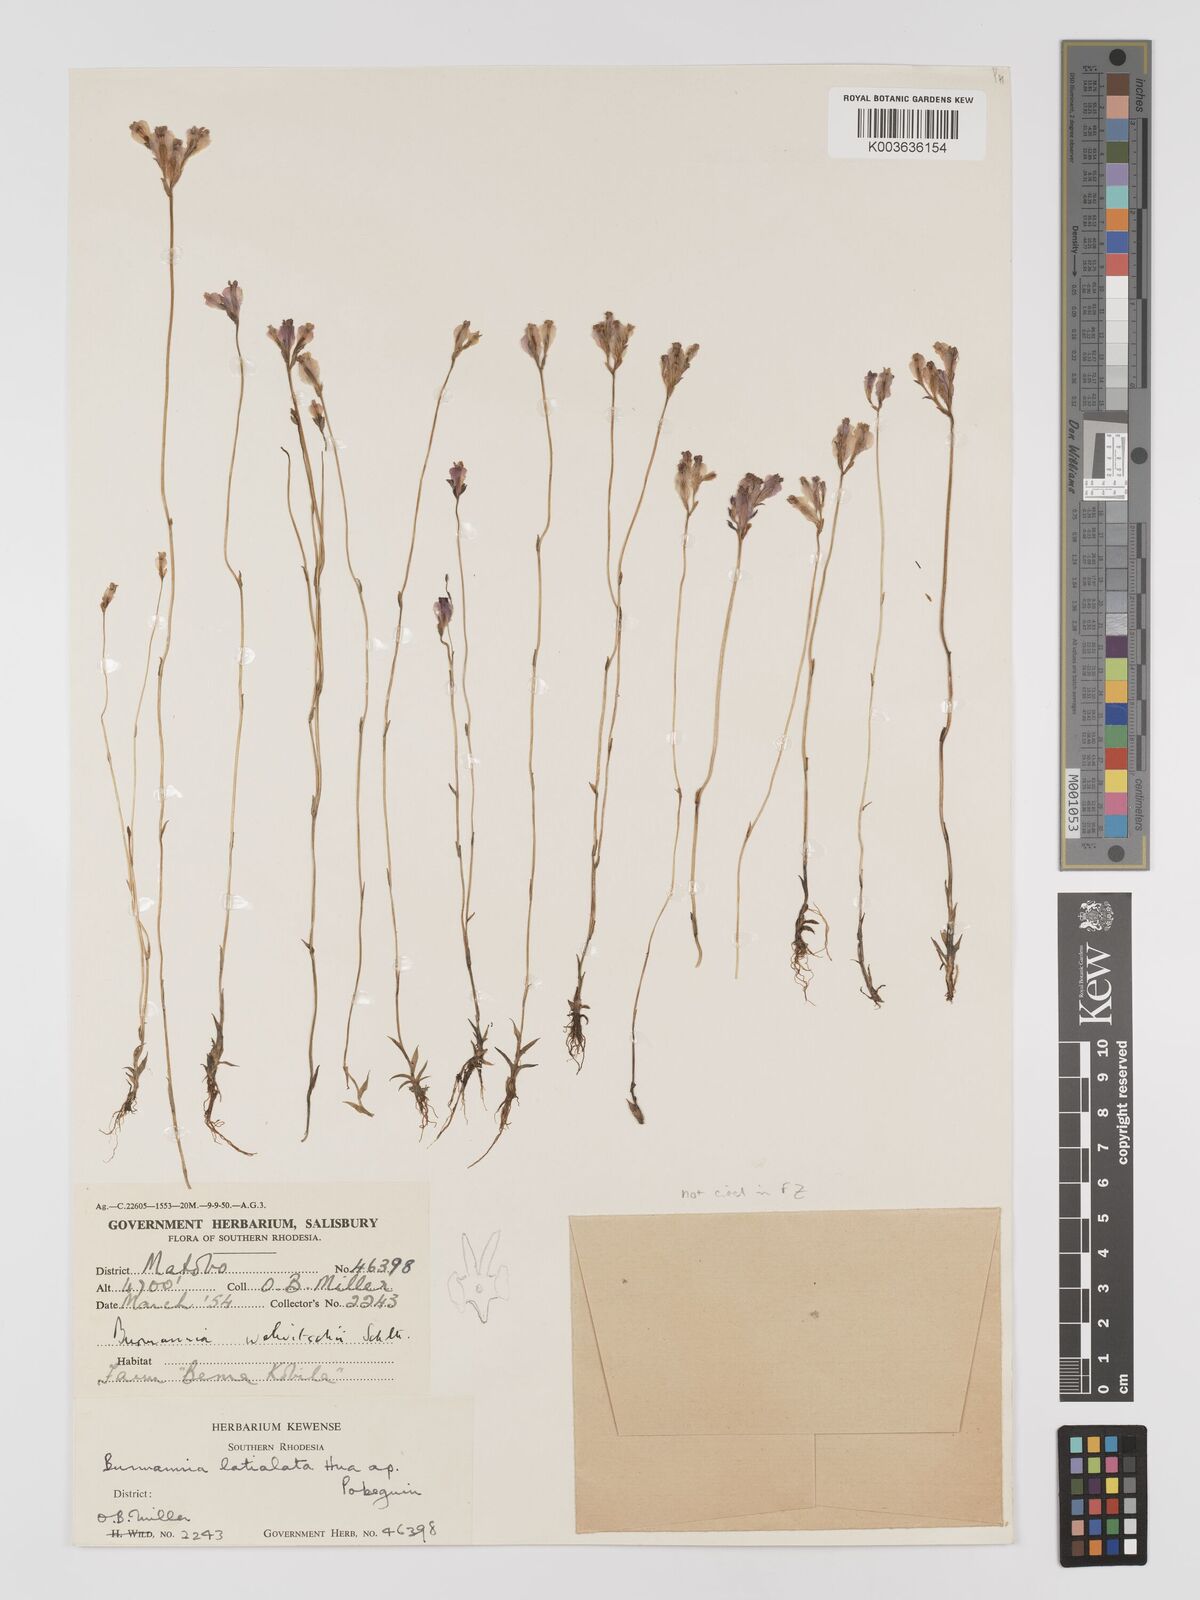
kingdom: Plantae
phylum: Tracheophyta
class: Liliopsida
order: Dioscoreales
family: Burmanniaceae
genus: Burmannia
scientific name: Burmannia madagascariensis
